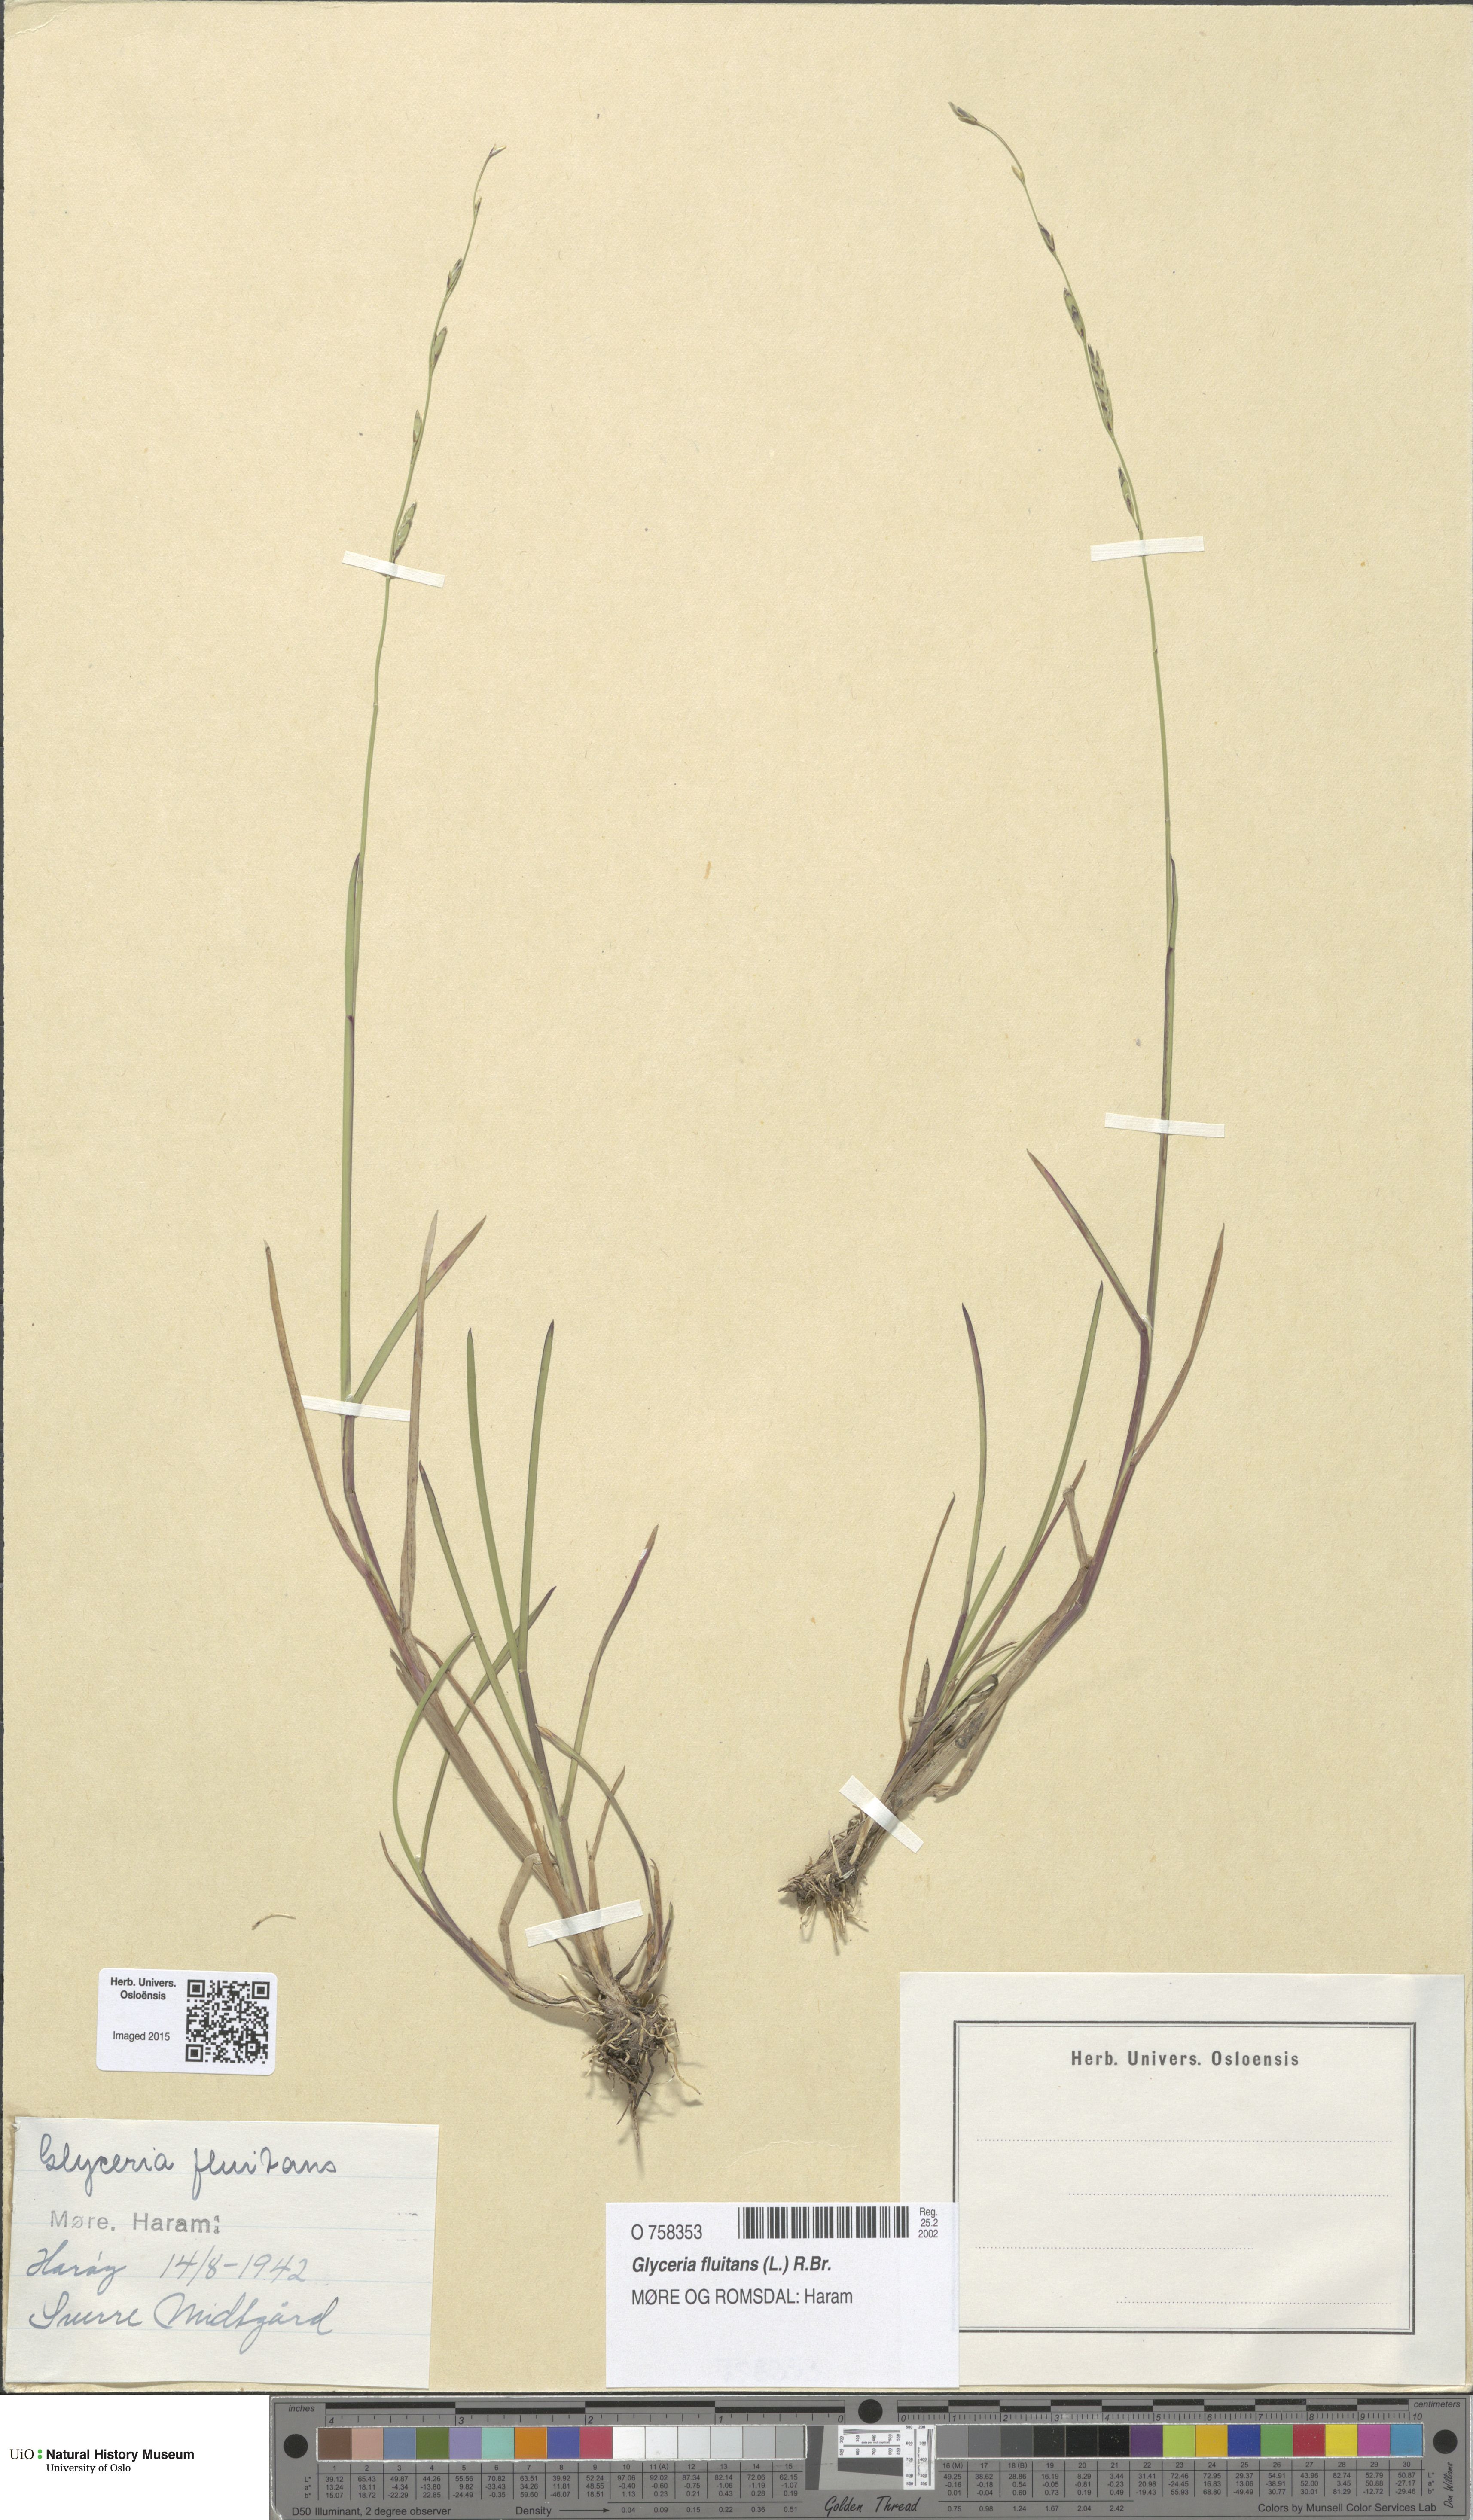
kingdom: Plantae
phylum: Tracheophyta
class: Liliopsida
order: Poales
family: Poaceae
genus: Glyceria
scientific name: Glyceria fluitans
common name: Floating sweet-grass
